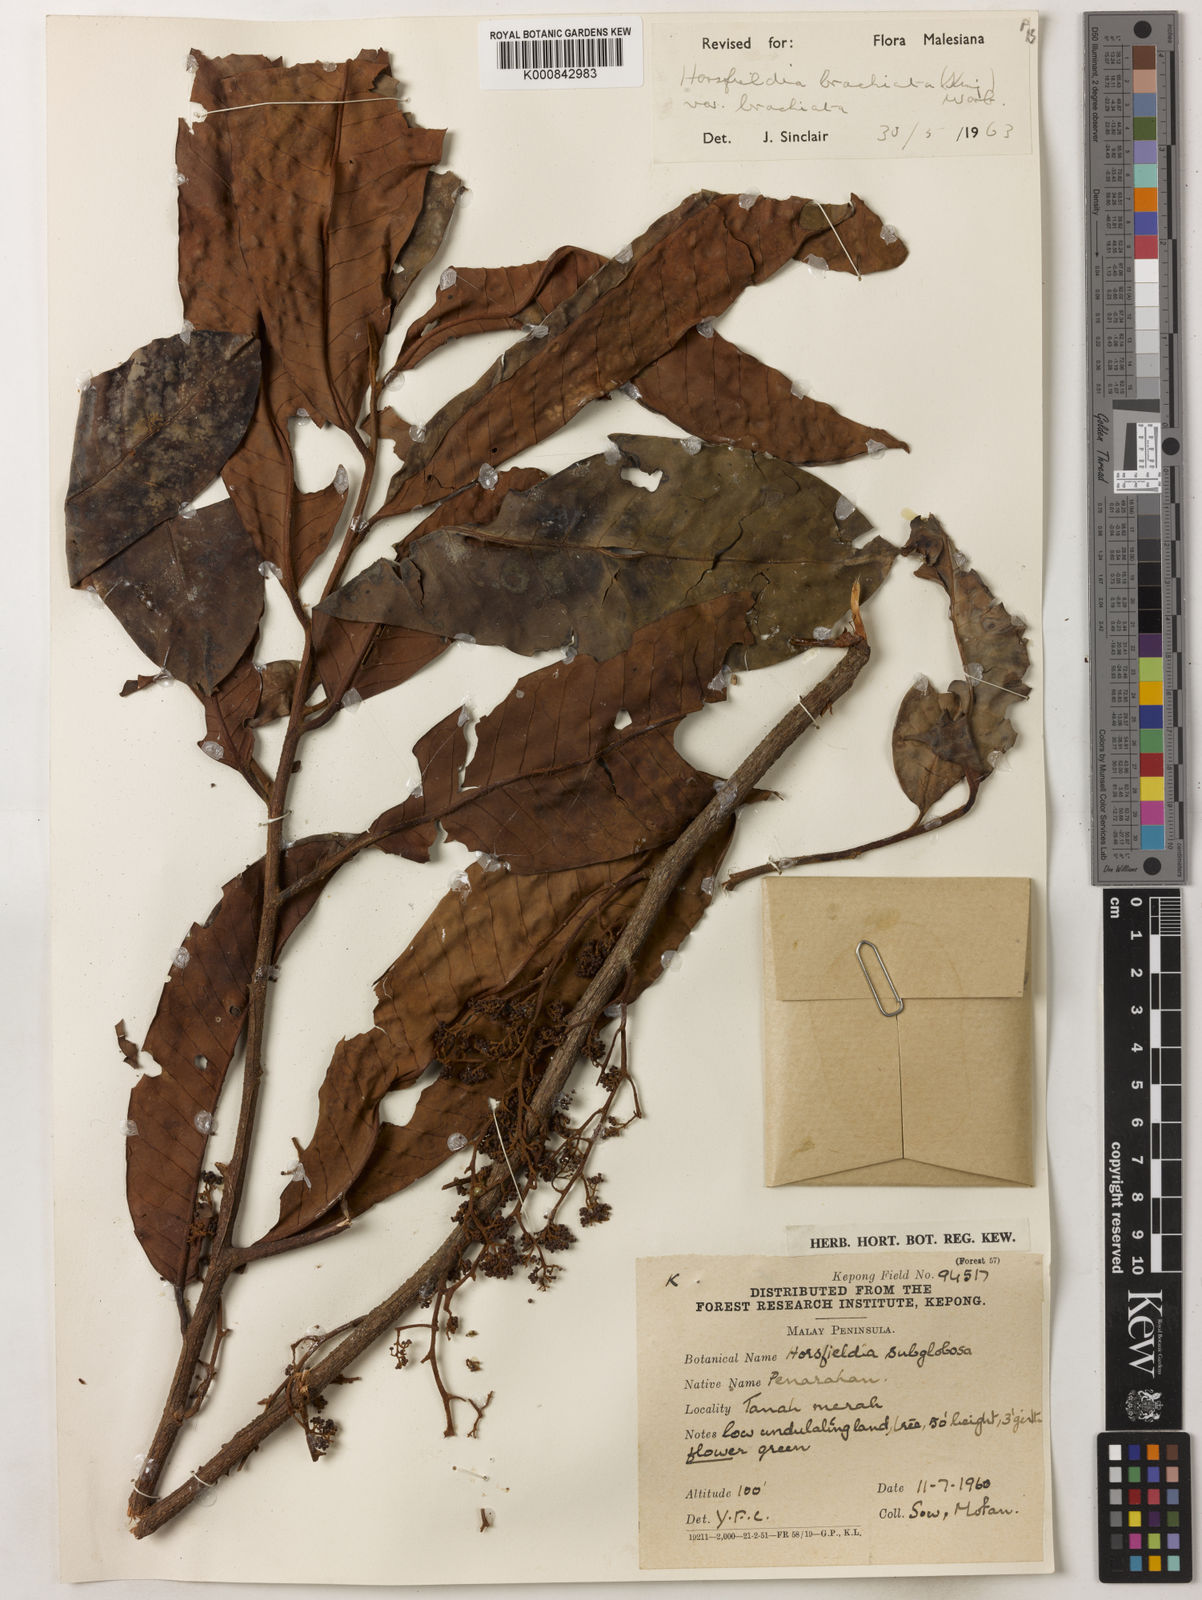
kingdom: Plantae
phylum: Tracheophyta
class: Magnoliopsida
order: Magnoliales
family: Myristicaceae
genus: Horsfieldia
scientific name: Horsfieldia brachiata
